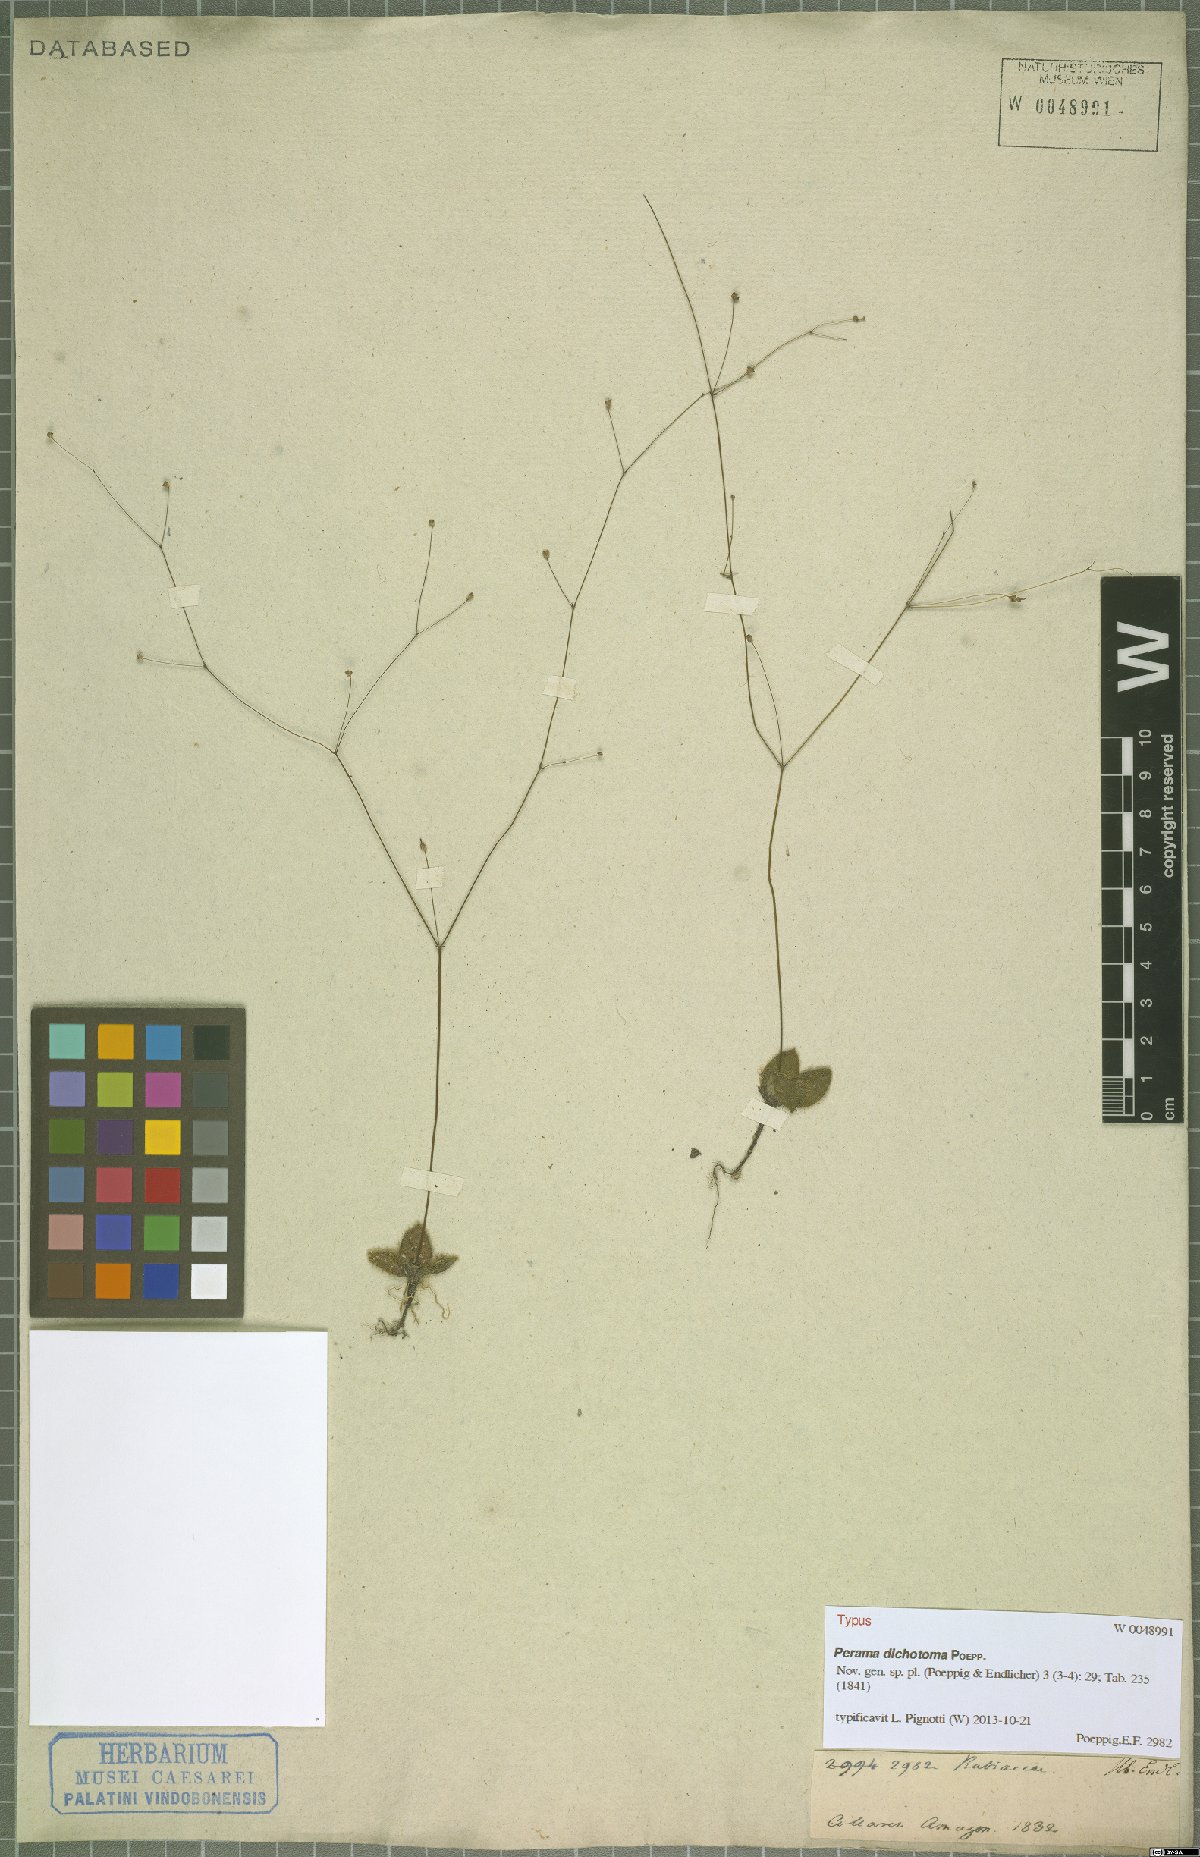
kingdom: Plantae
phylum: Tracheophyta
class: Magnoliopsida
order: Gentianales
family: Rubiaceae
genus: Perama
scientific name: Perama dichotoma
